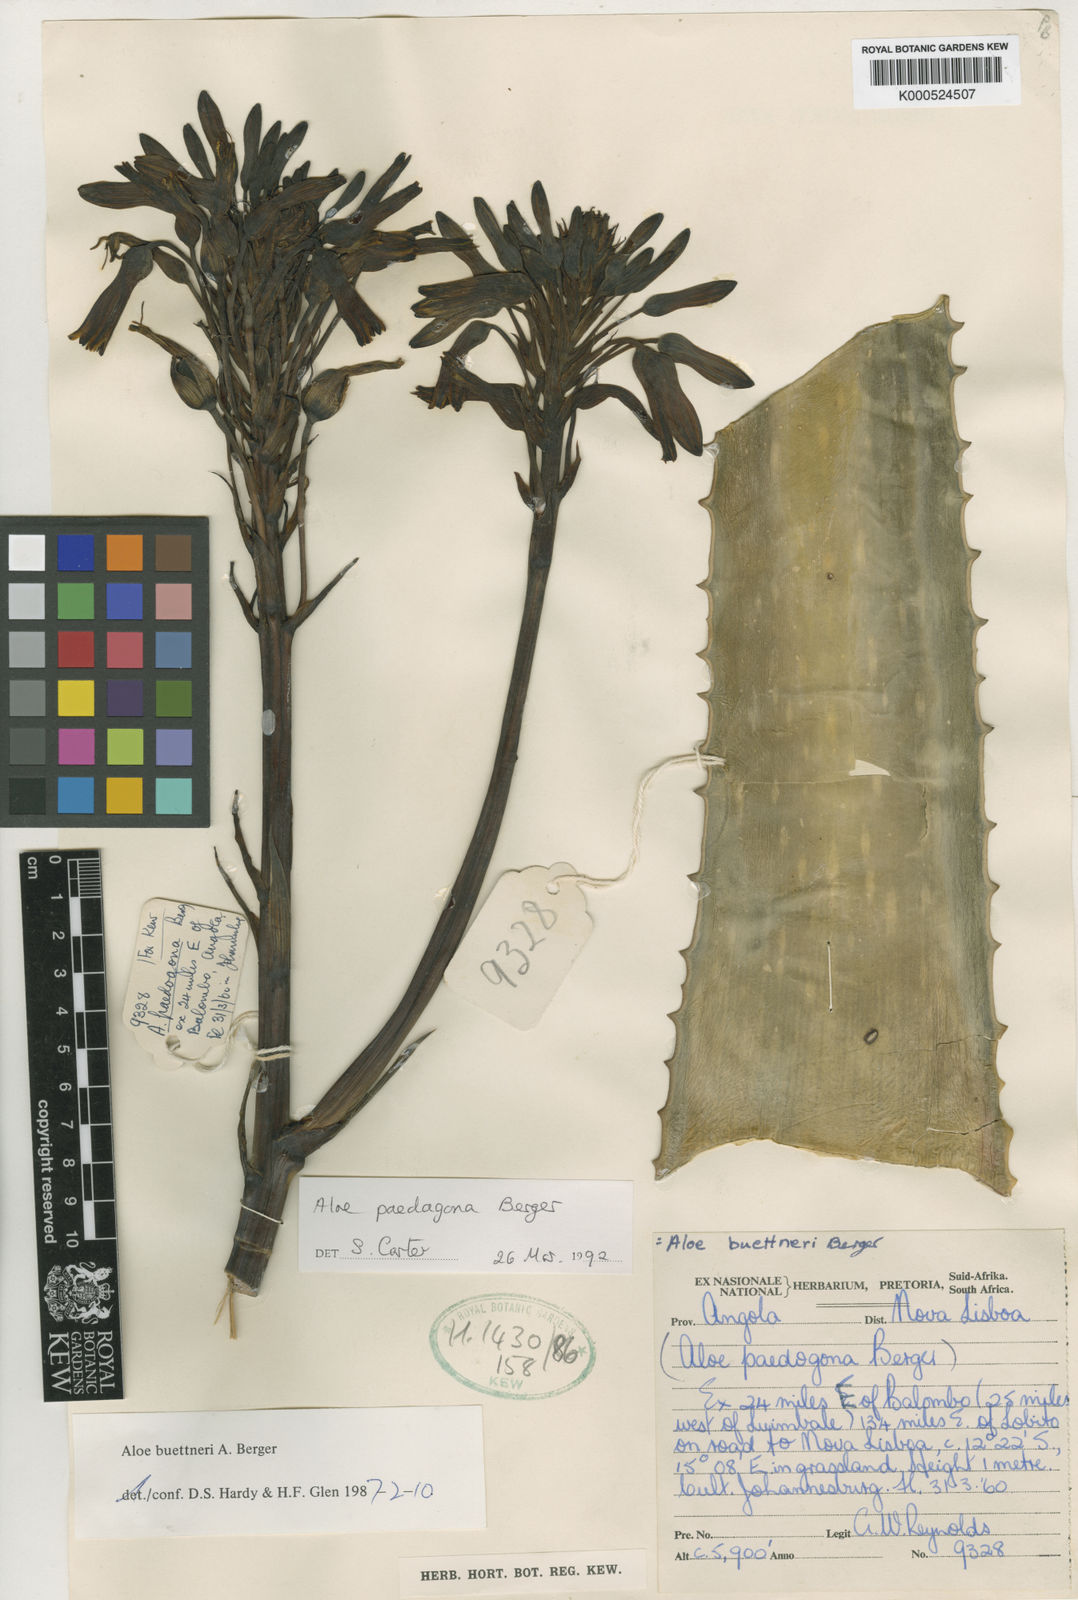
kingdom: Plantae
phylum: Tracheophyta
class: Liliopsida
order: Asparagales
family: Asphodelaceae
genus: Aloe
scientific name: Aloe paedogona
